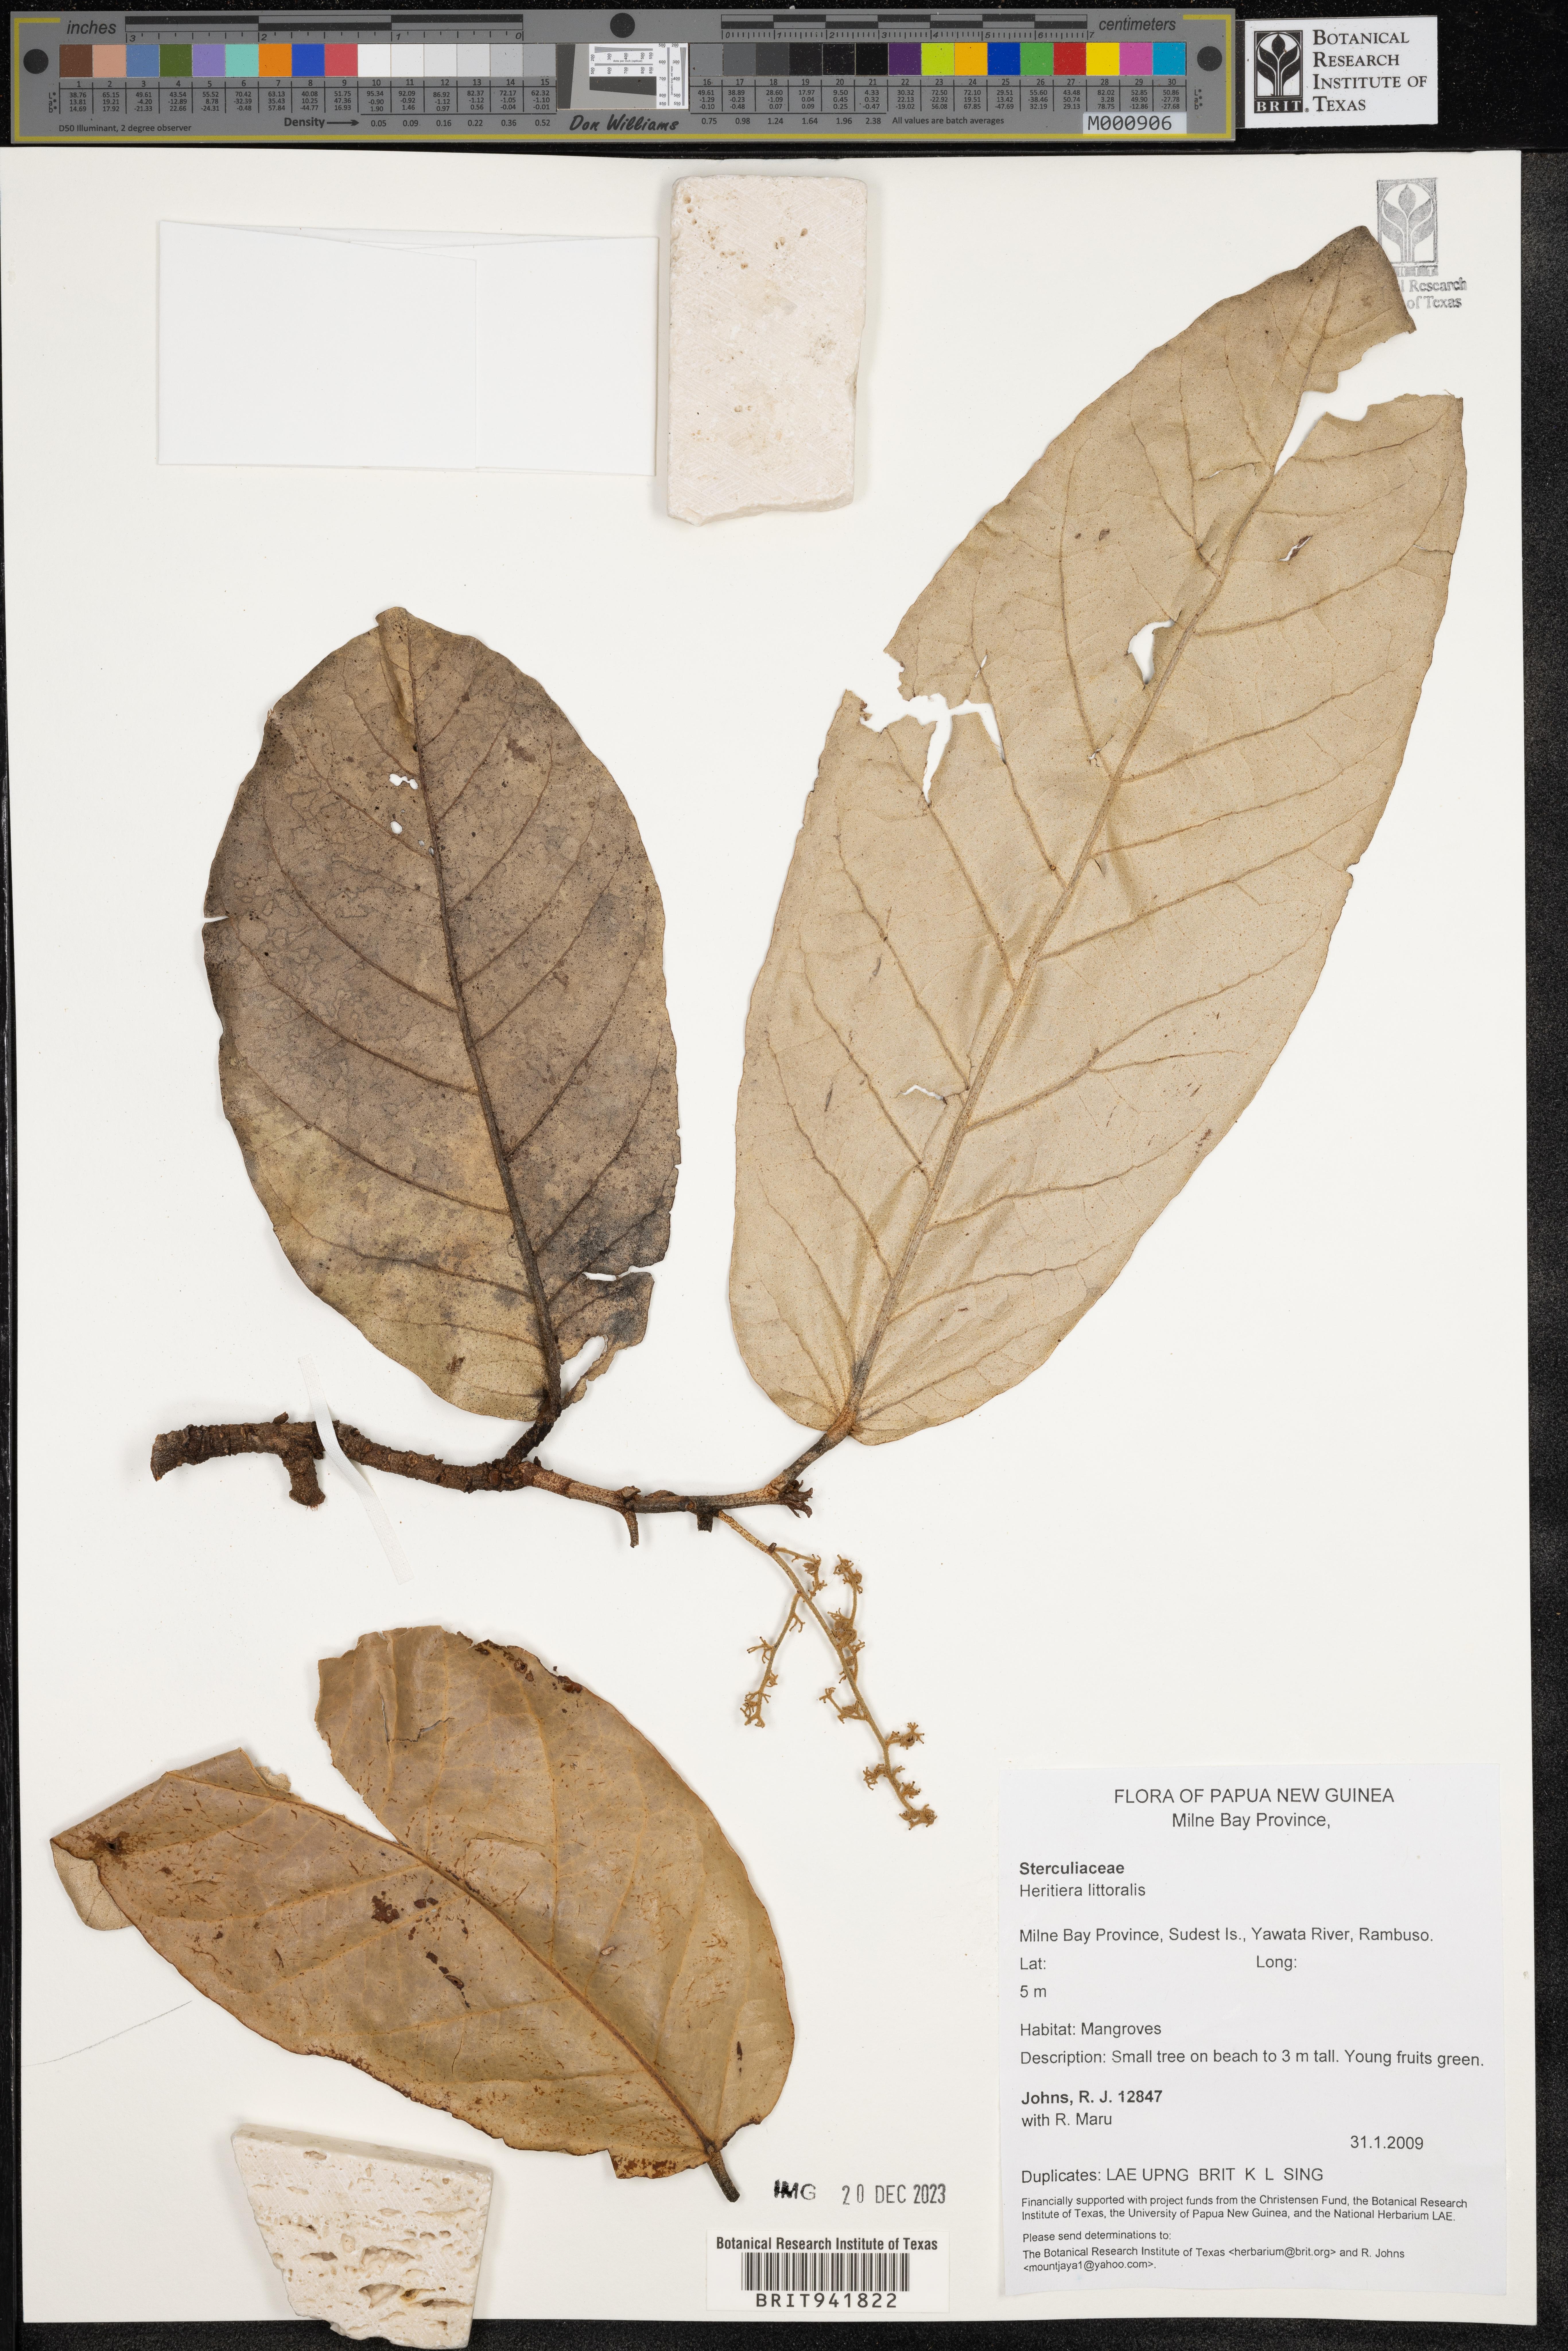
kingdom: Plantae
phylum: Tracheophyta
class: Magnoliopsida
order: Malvales
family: Malvaceae
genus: Heritiera
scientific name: Heritiera
